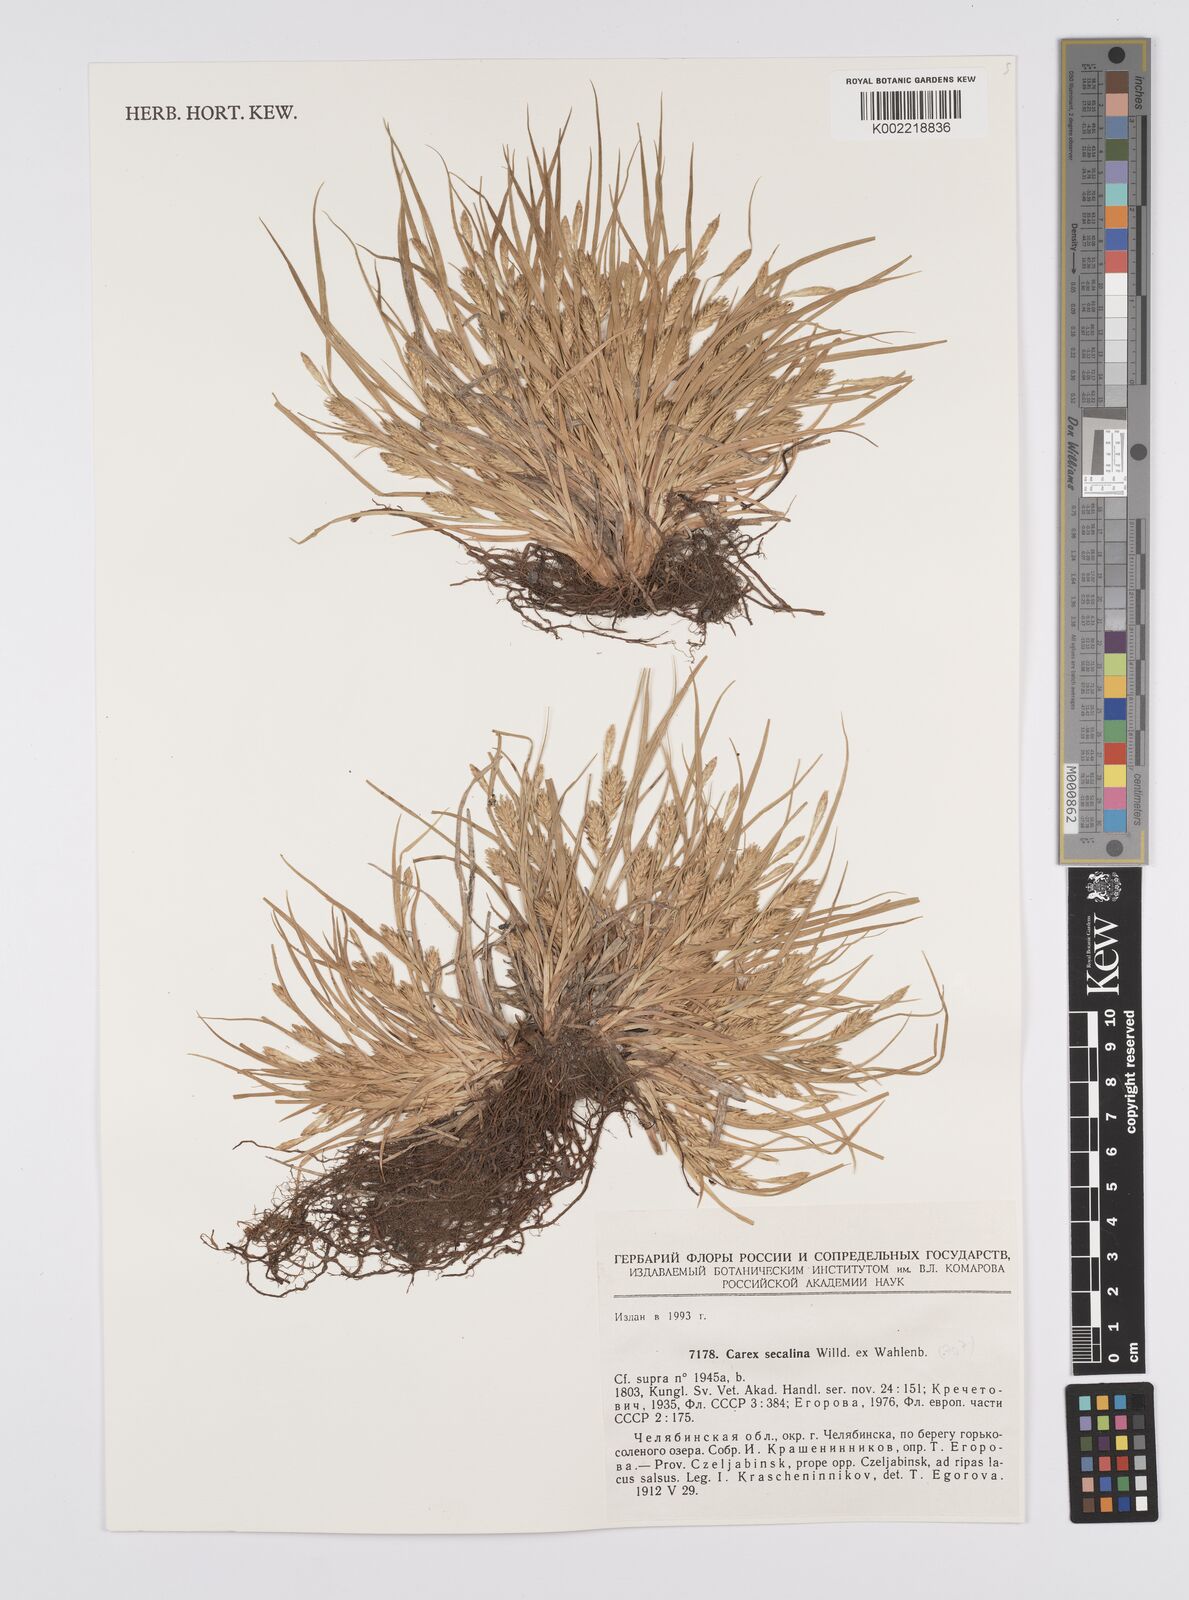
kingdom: Plantae
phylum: Tracheophyta
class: Liliopsida
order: Poales
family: Cyperaceae
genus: Carex
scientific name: Carex secalina
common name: Rye sedge
